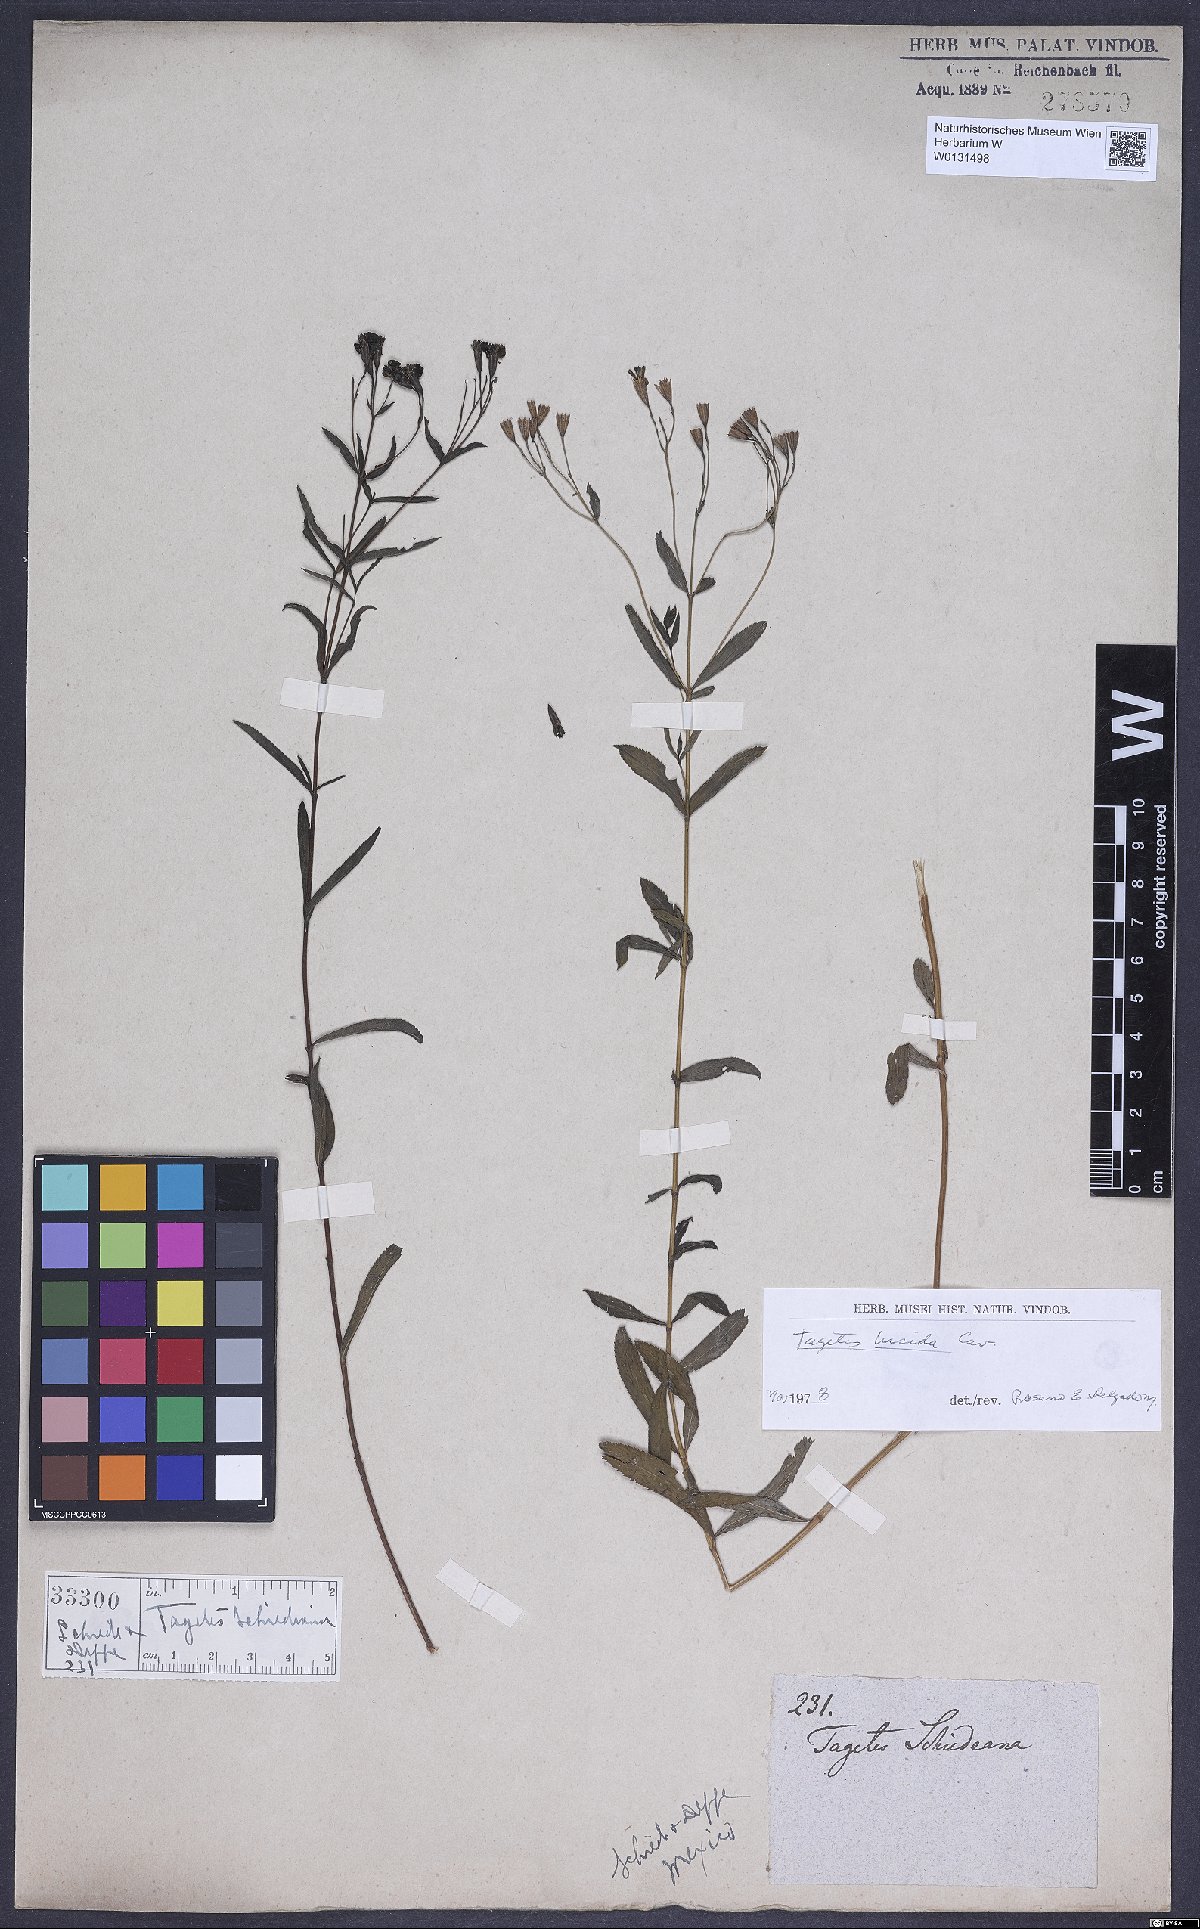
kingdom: Plantae
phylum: Tracheophyta
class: Magnoliopsida
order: Asterales
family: Asteraceae
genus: Tagetes
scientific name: Tagetes lucida
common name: Sweetscented marigold
